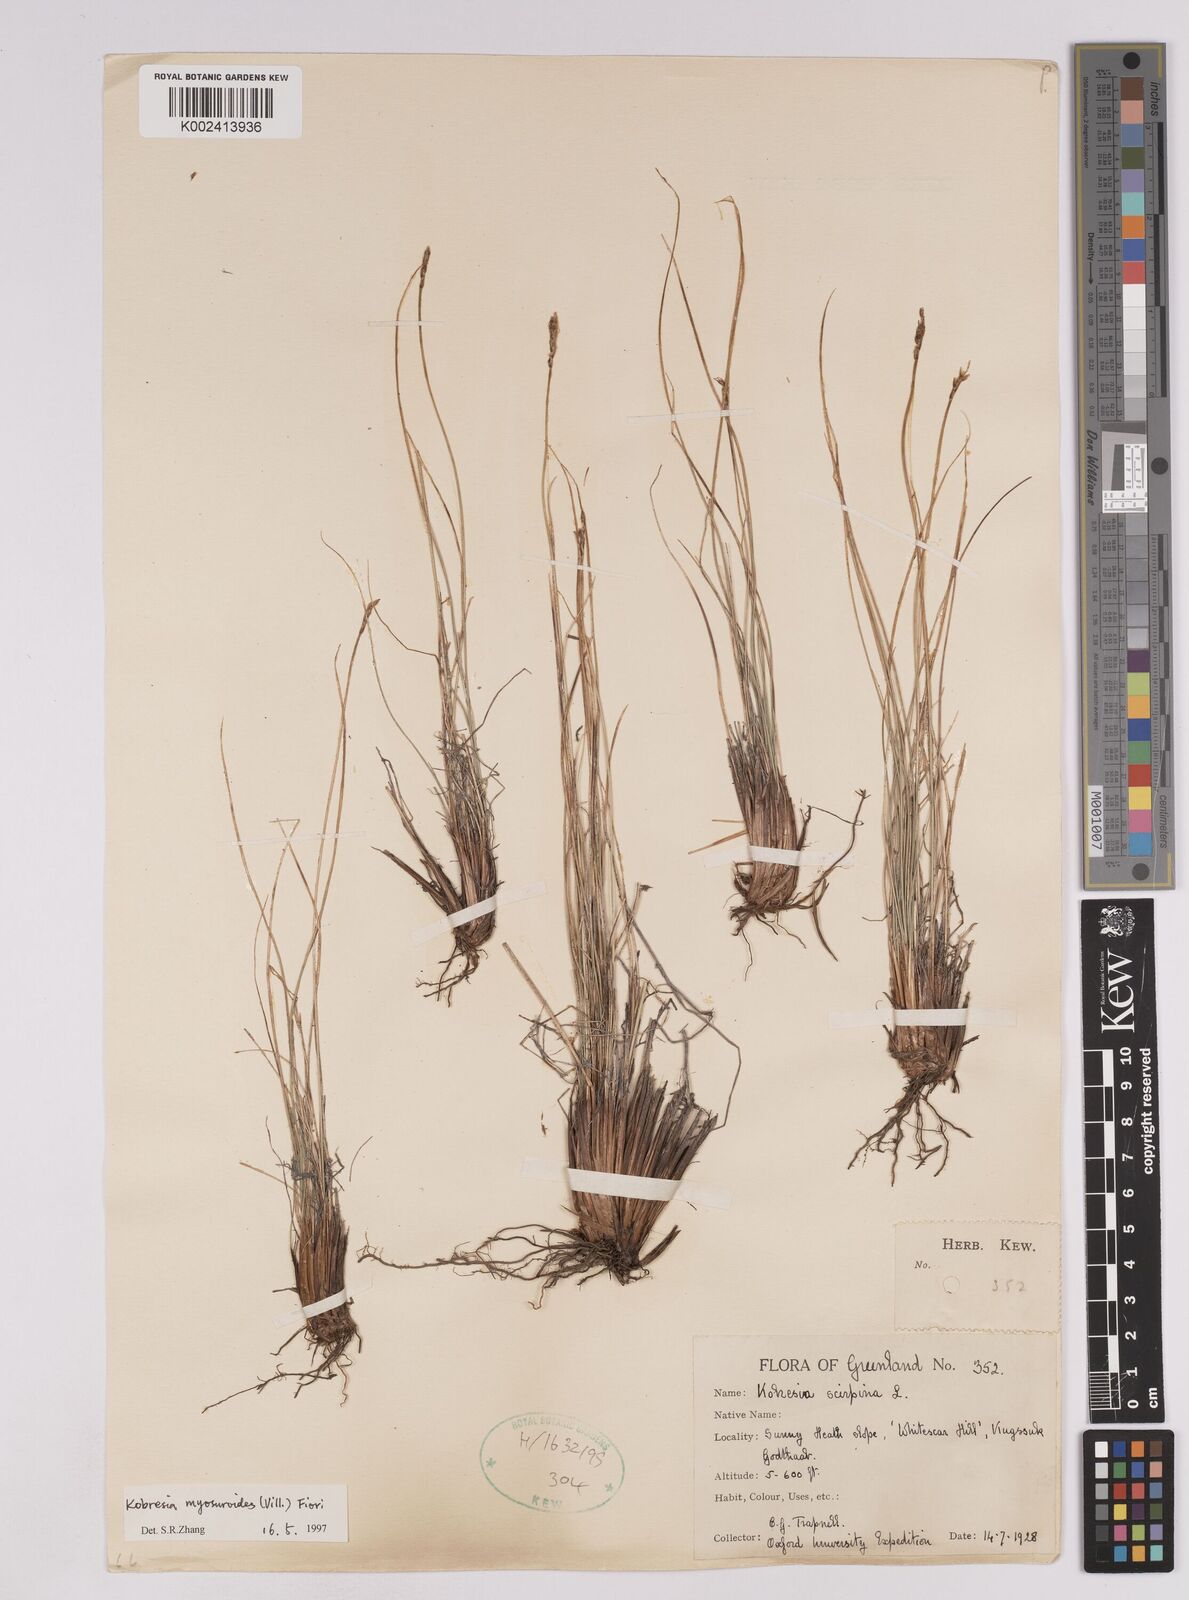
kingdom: Plantae
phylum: Tracheophyta
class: Liliopsida
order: Poales
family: Cyperaceae
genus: Carex
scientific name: Carex myosuroides
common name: Bellard's bog sedge
